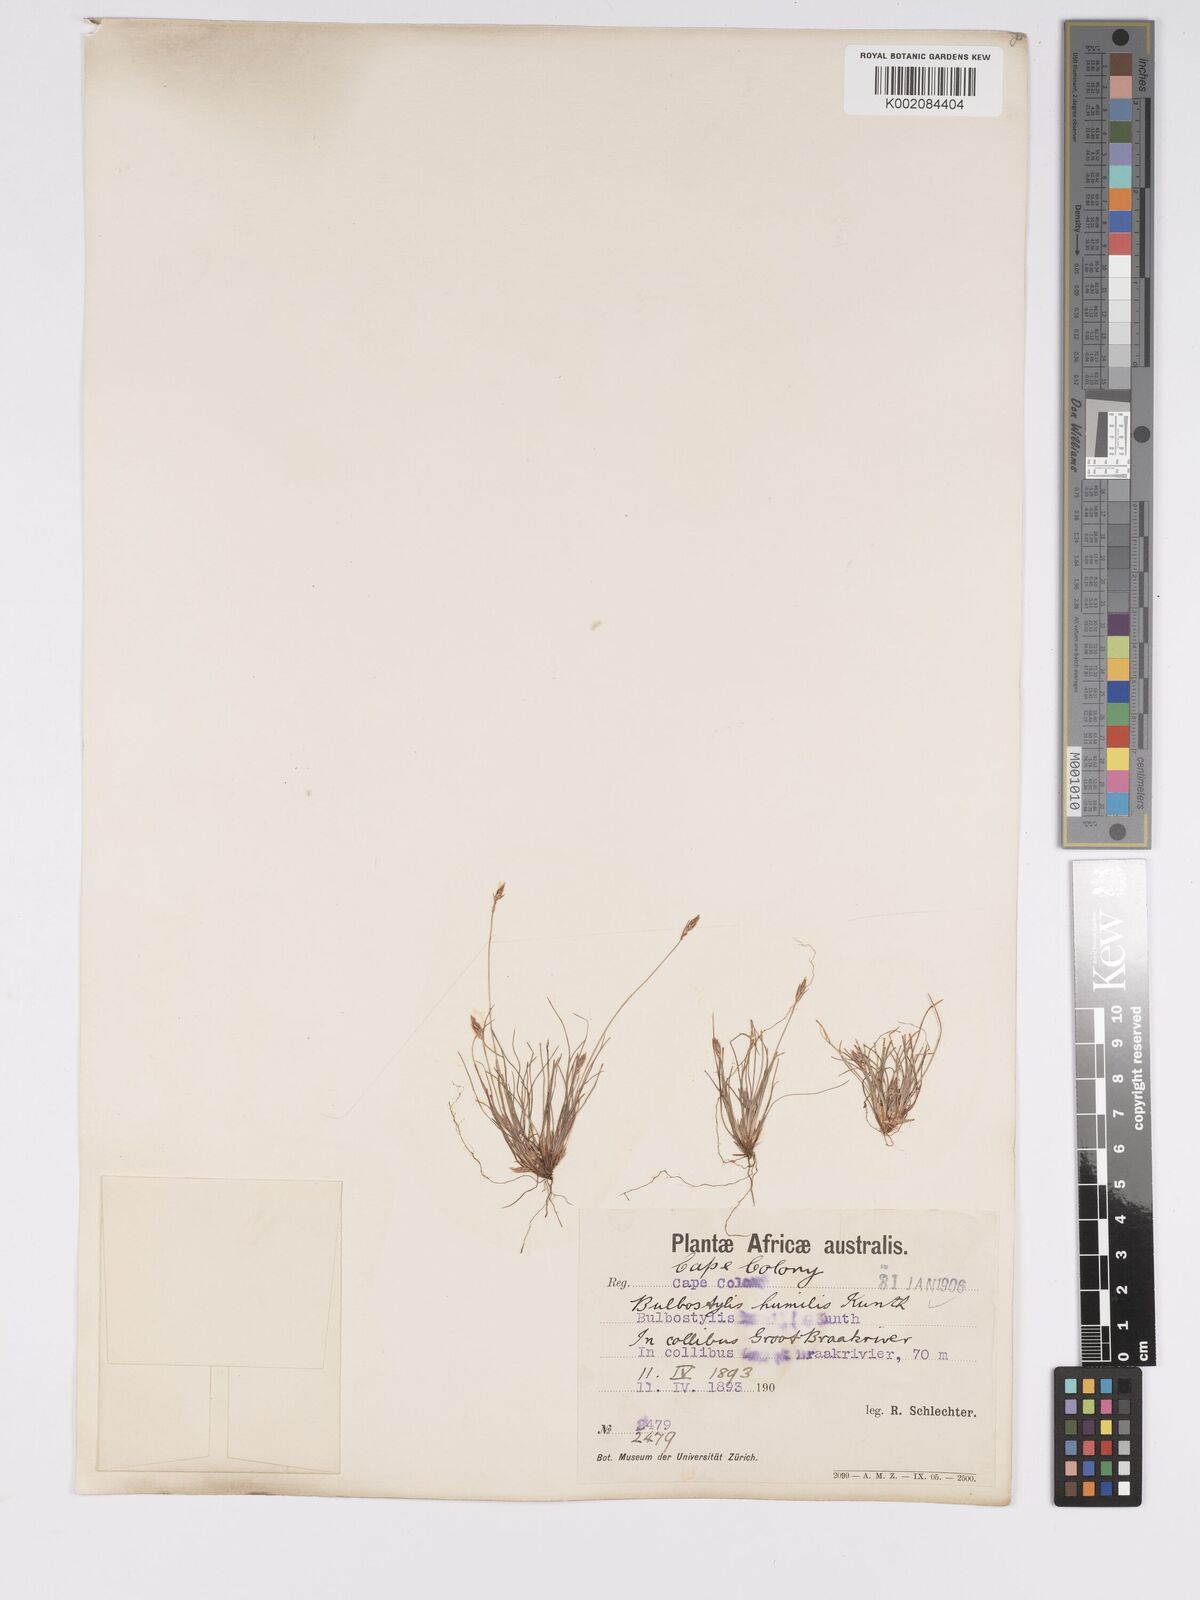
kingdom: Plantae
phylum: Tracheophyta
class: Liliopsida
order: Poales
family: Cyperaceae
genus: Bulbostylis
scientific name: Bulbostylis humilis
